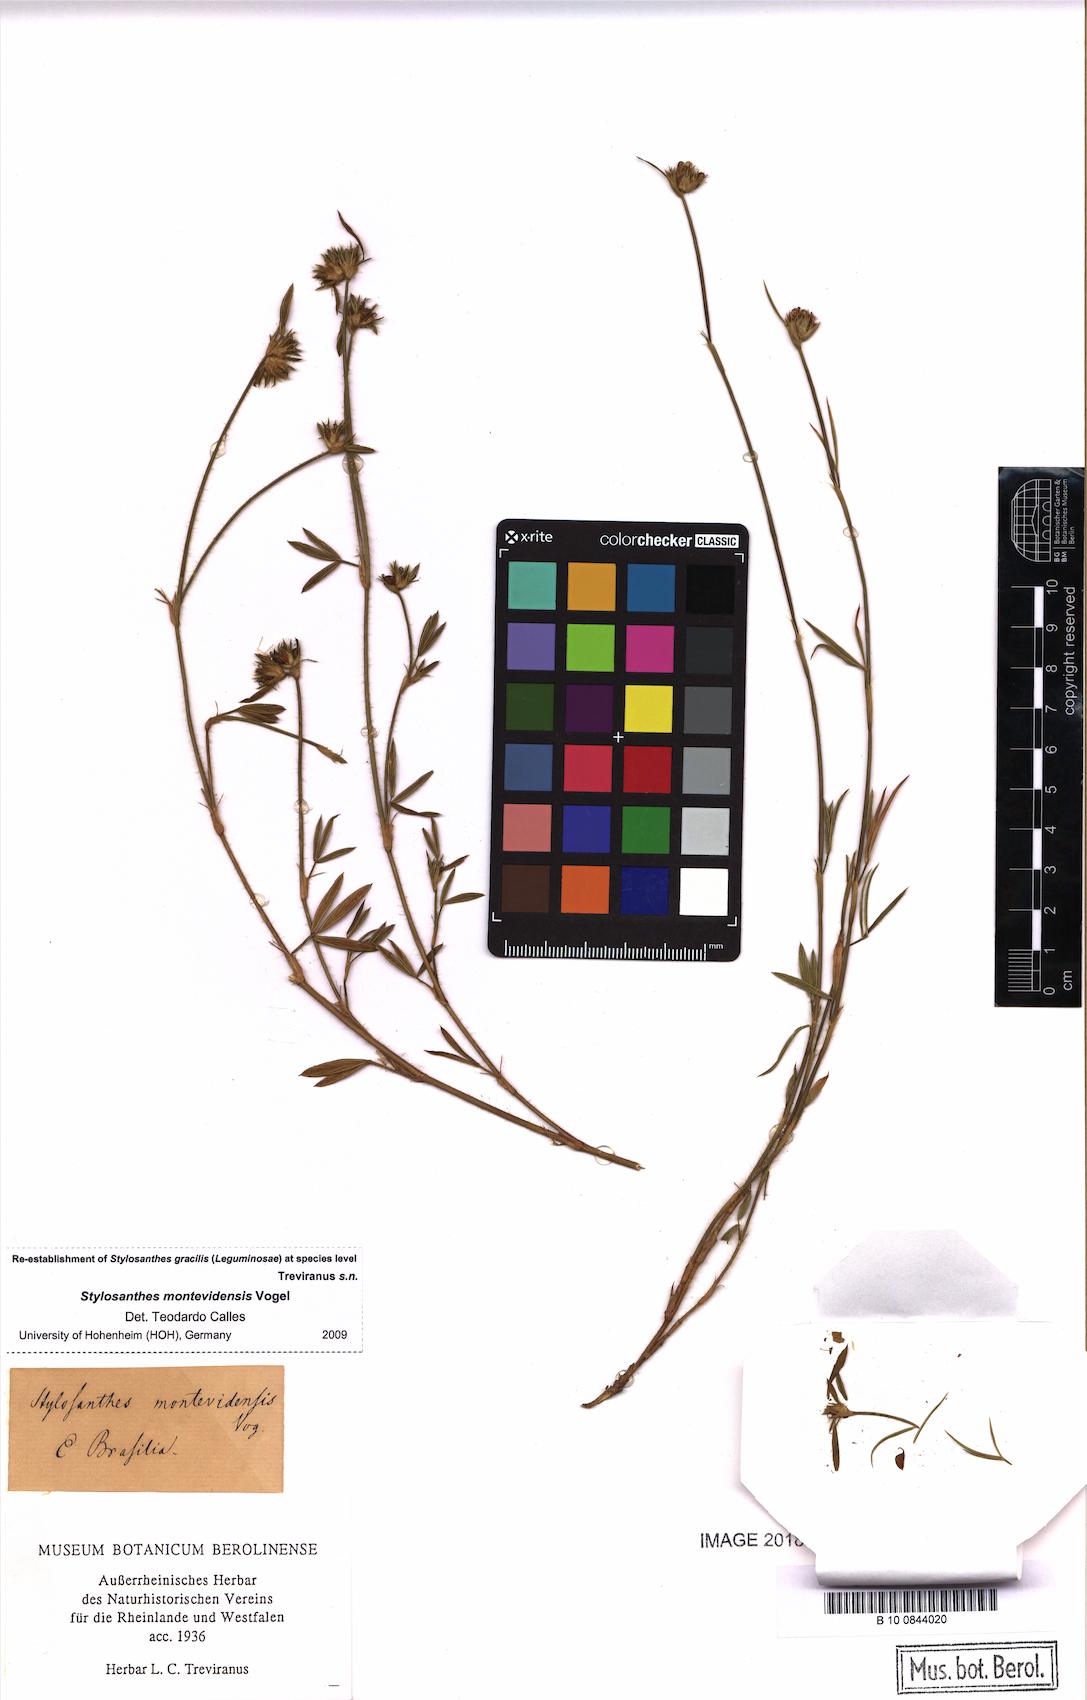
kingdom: Plantae
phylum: Tracheophyta
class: Magnoliopsida
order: Fabales
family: Fabaceae
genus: Stylosanthes
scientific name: Stylosanthes montevidensis
